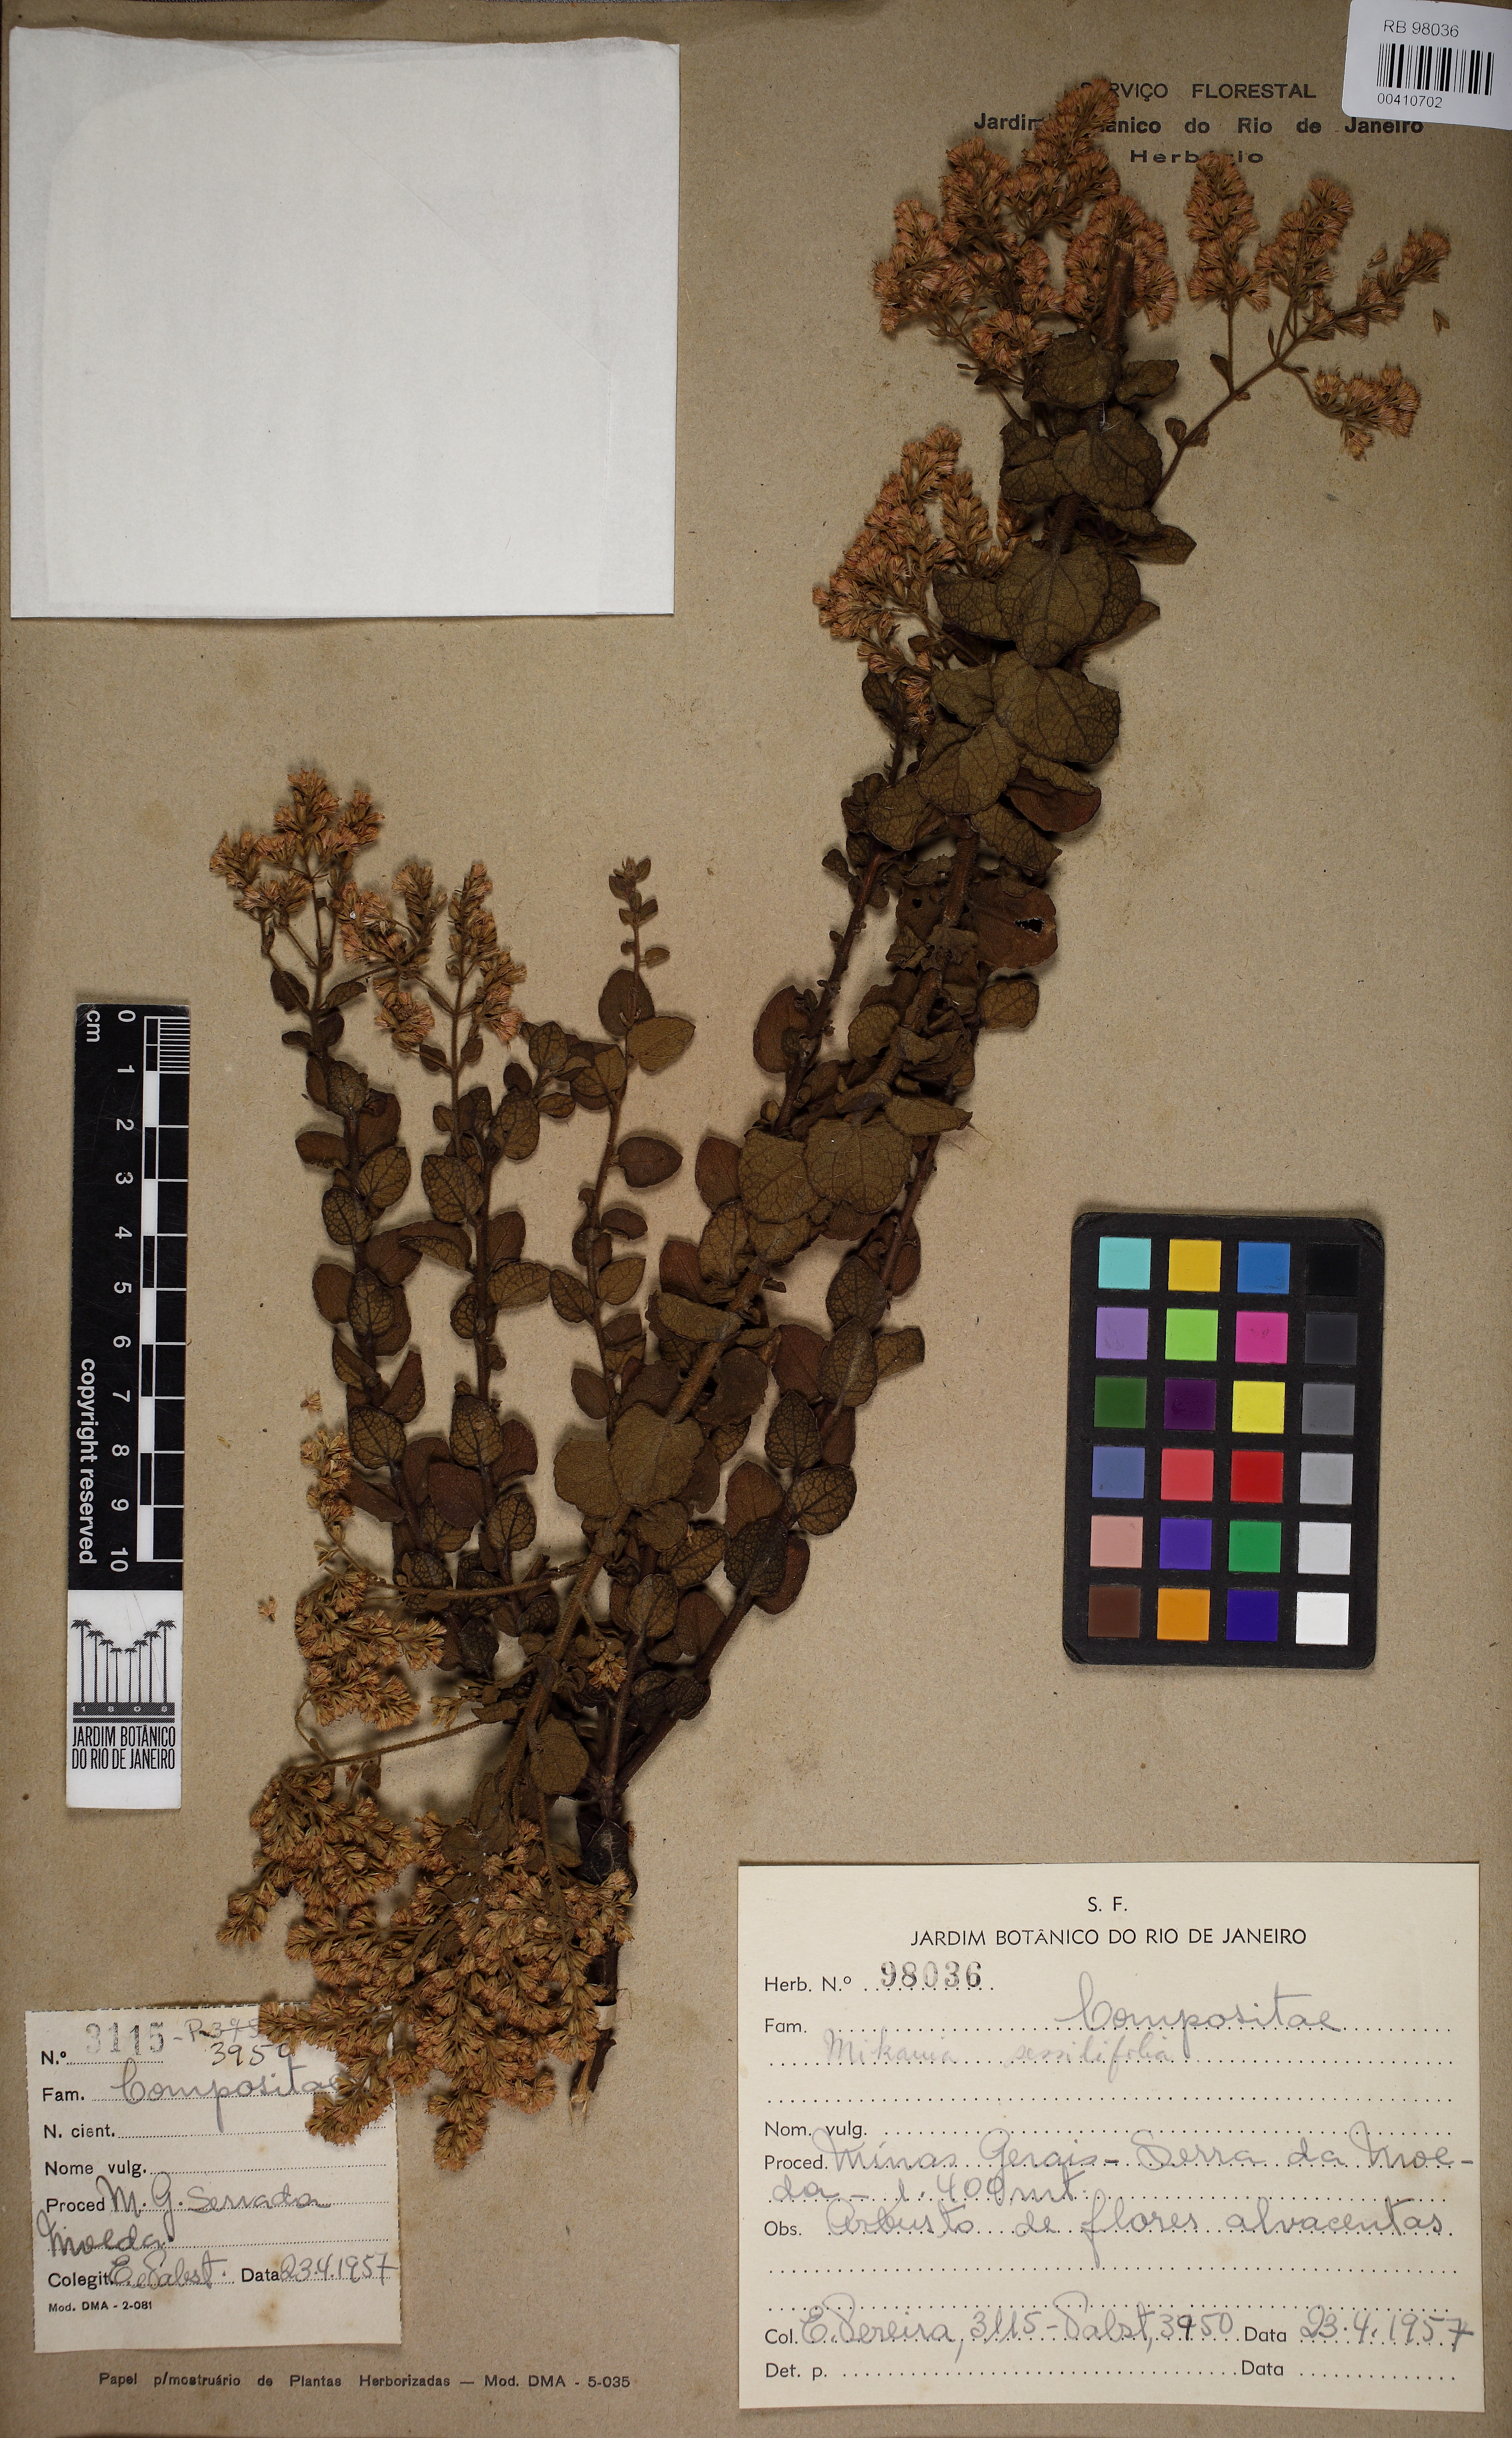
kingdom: Plantae
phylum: Tracheophyta
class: Magnoliopsida
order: Asterales
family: Asteraceae
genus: Mikania
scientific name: Mikania sessilifolia
